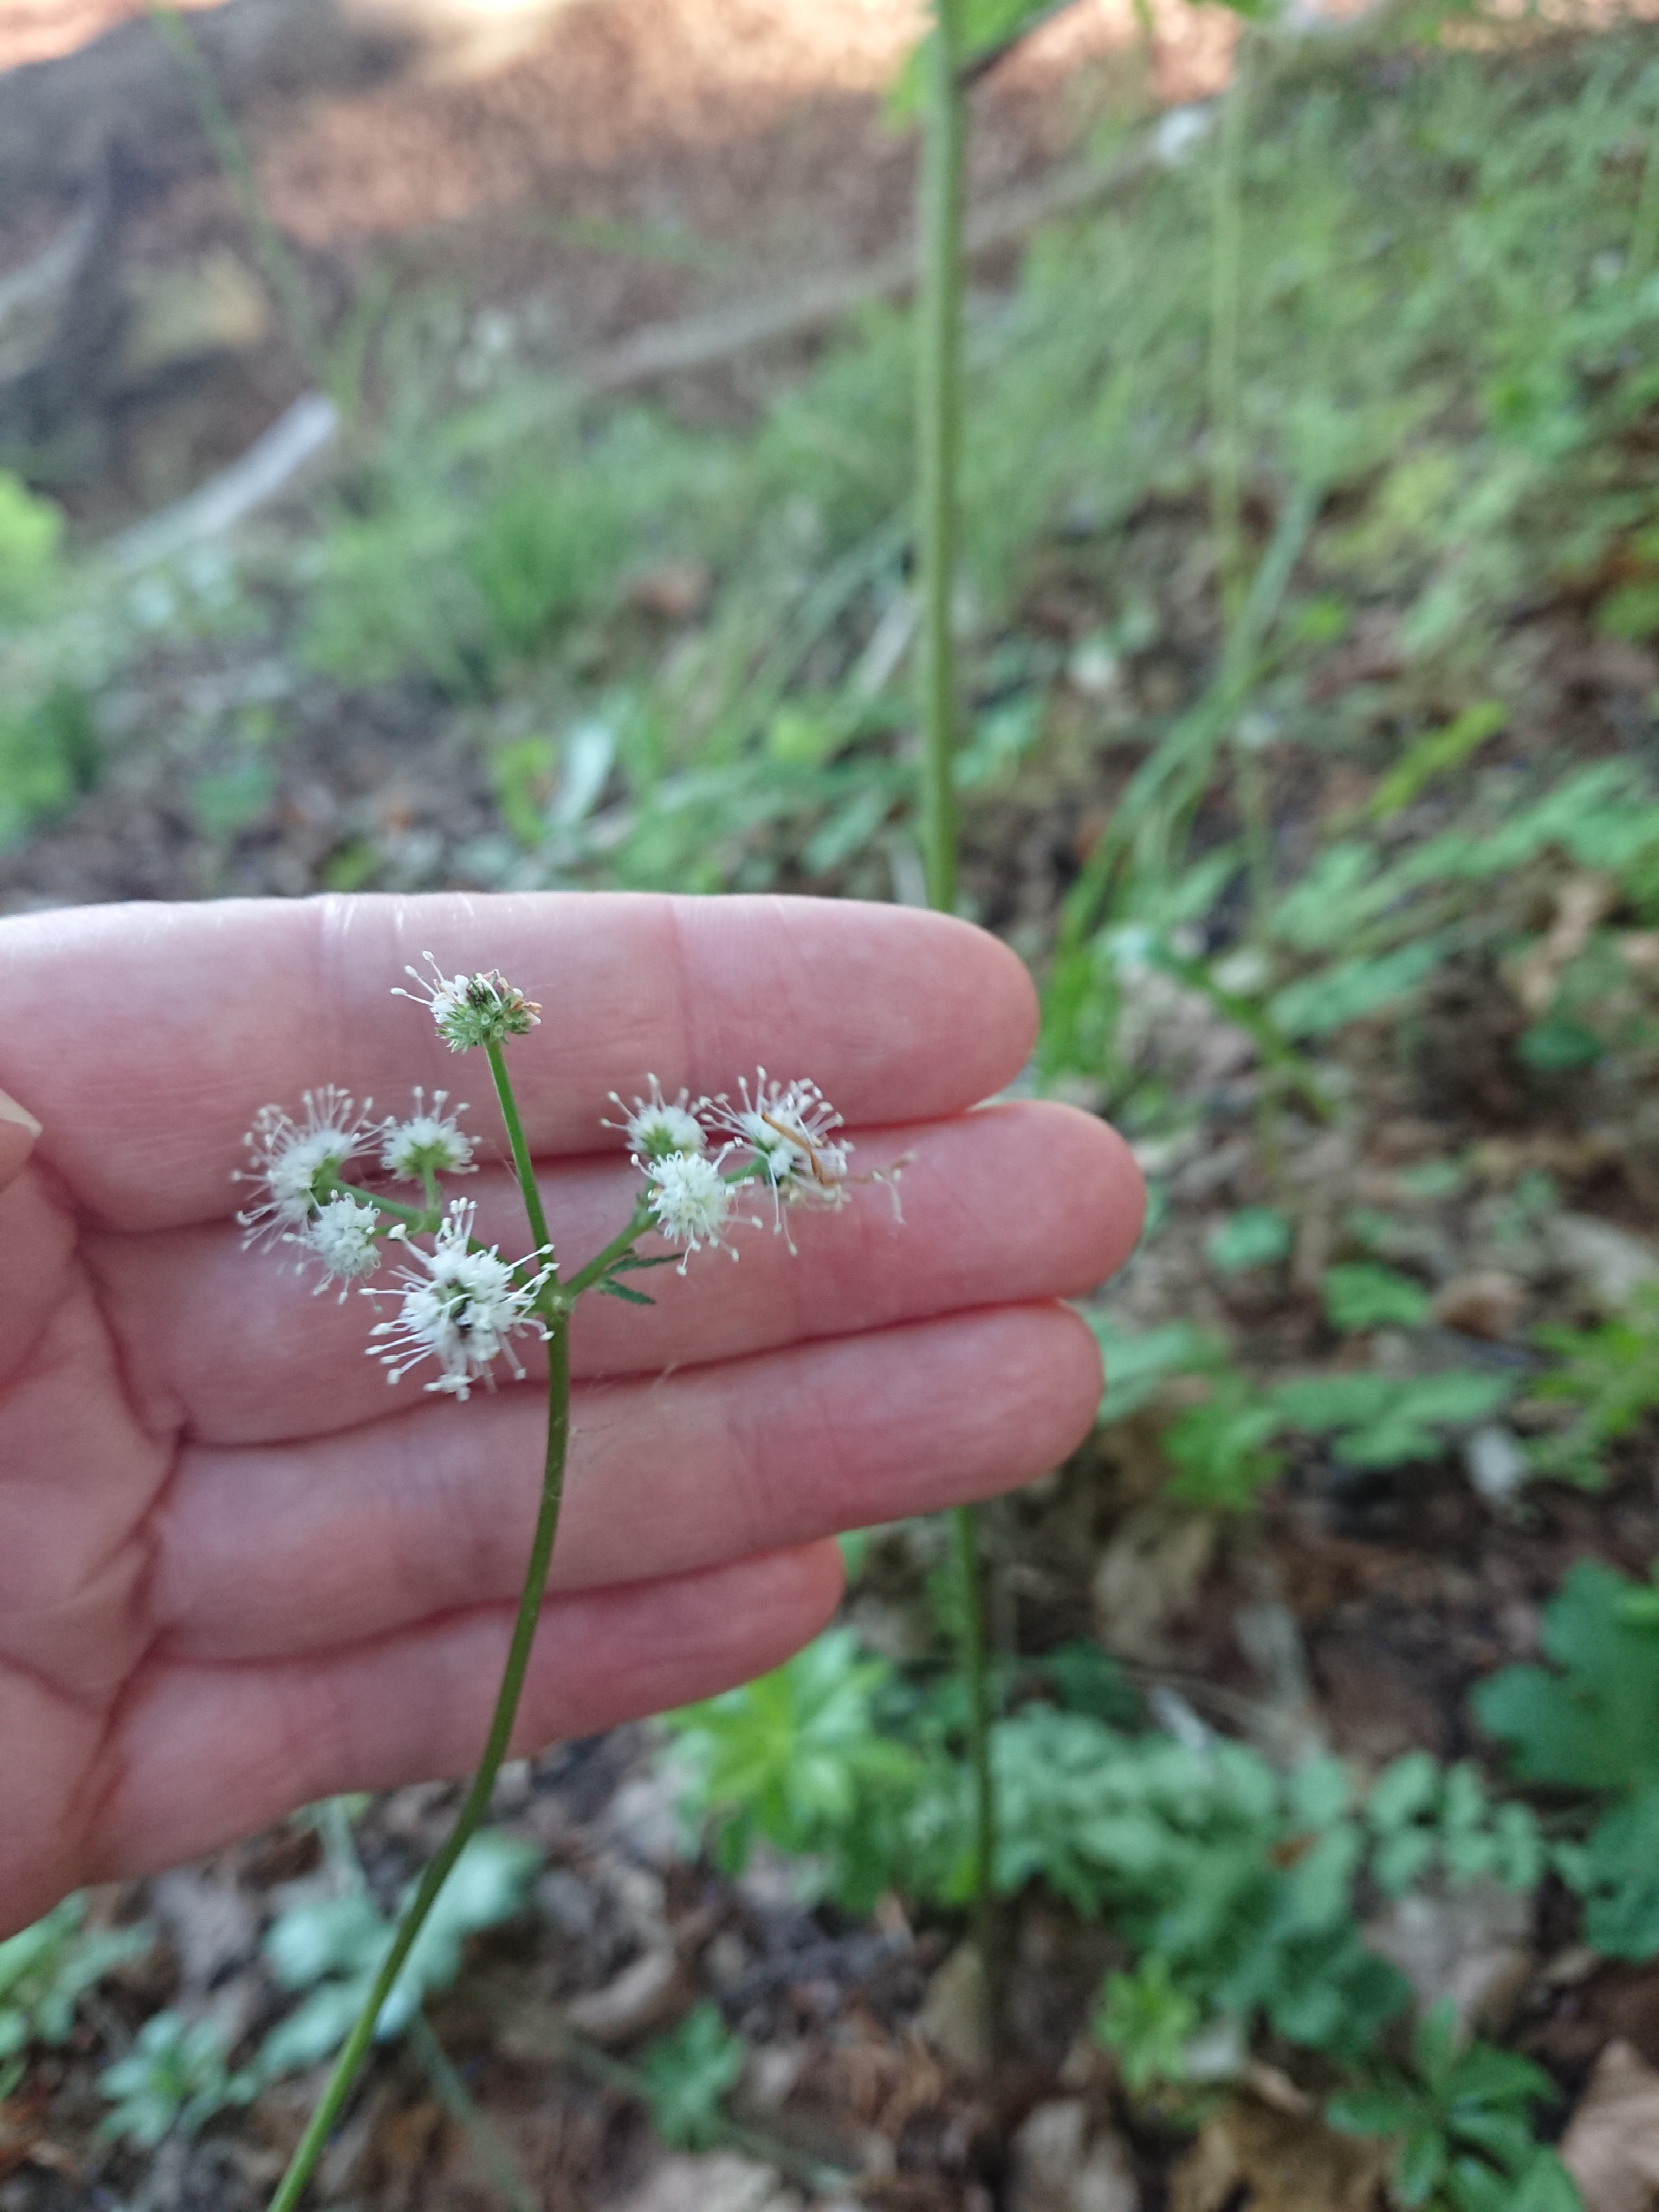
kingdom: Plantae
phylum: Tracheophyta
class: Magnoliopsida
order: Apiales
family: Apiaceae
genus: Sanicula
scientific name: Sanicula europaea
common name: Sanikel
